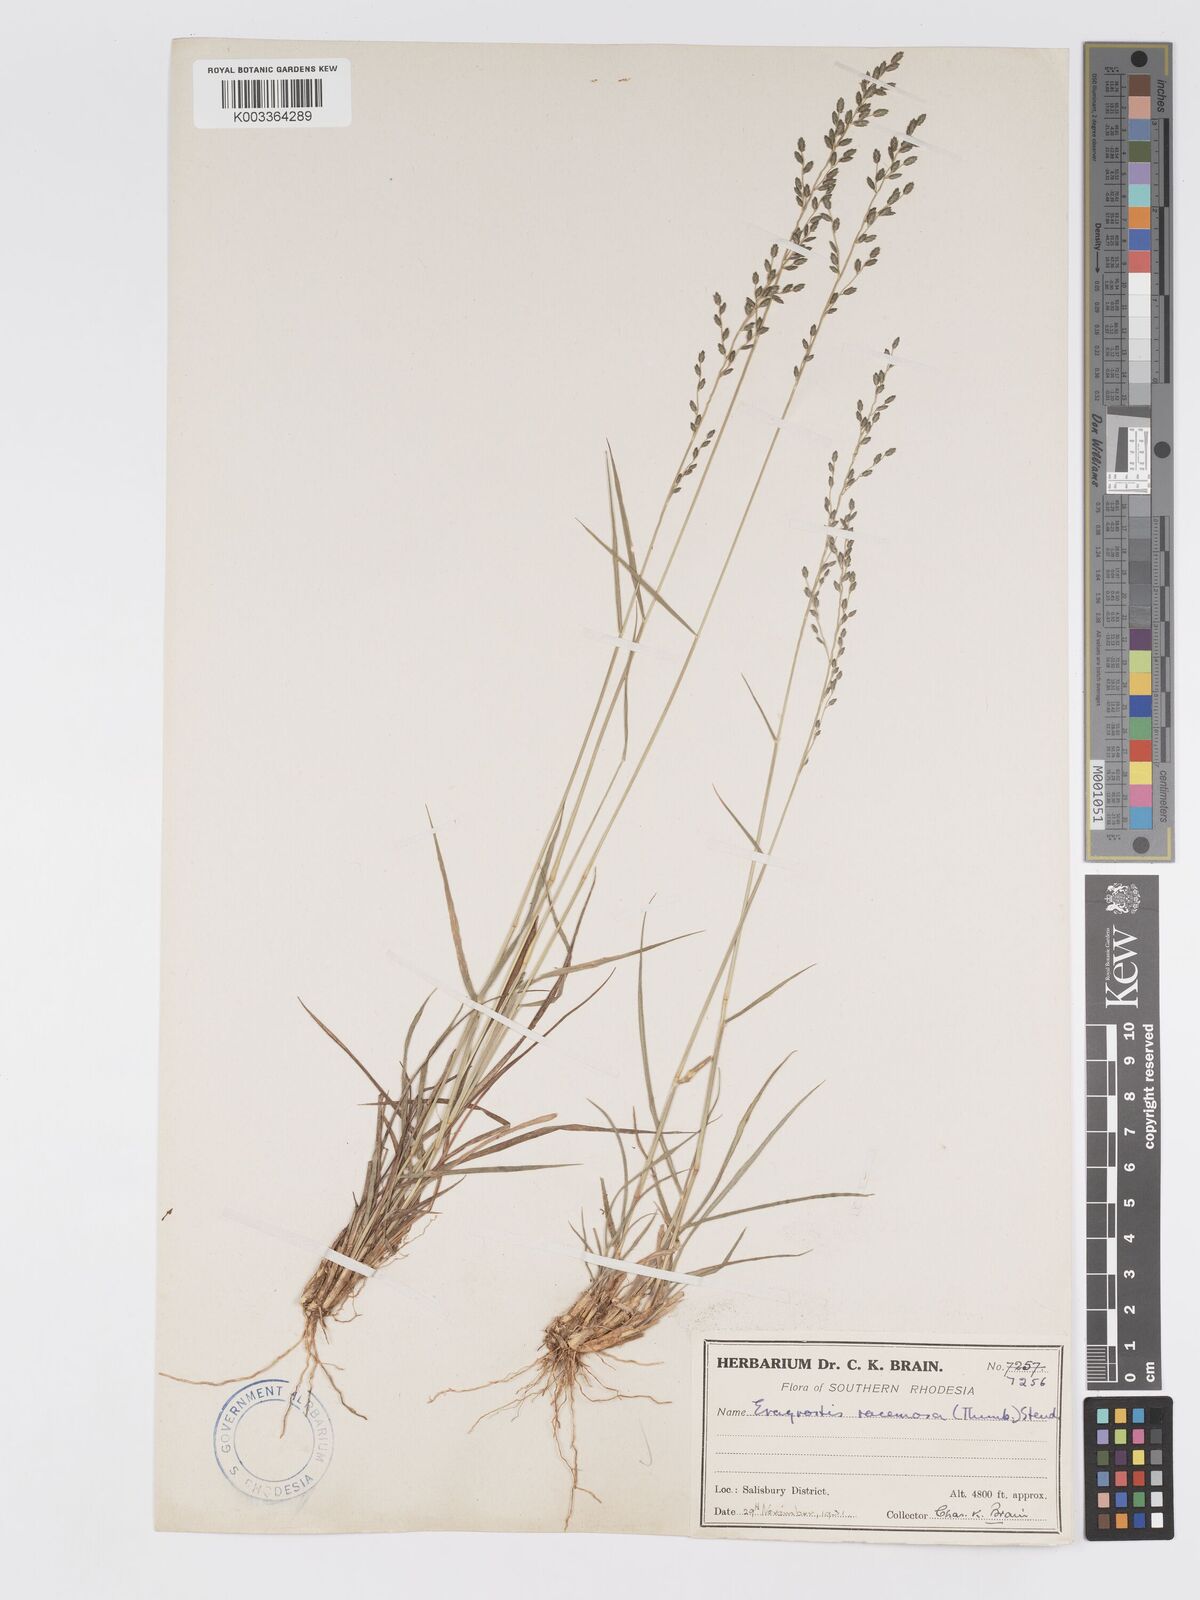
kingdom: Plantae
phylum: Tracheophyta
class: Liliopsida
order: Poales
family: Poaceae
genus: Eragrostis
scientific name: Eragrostis racemosa
